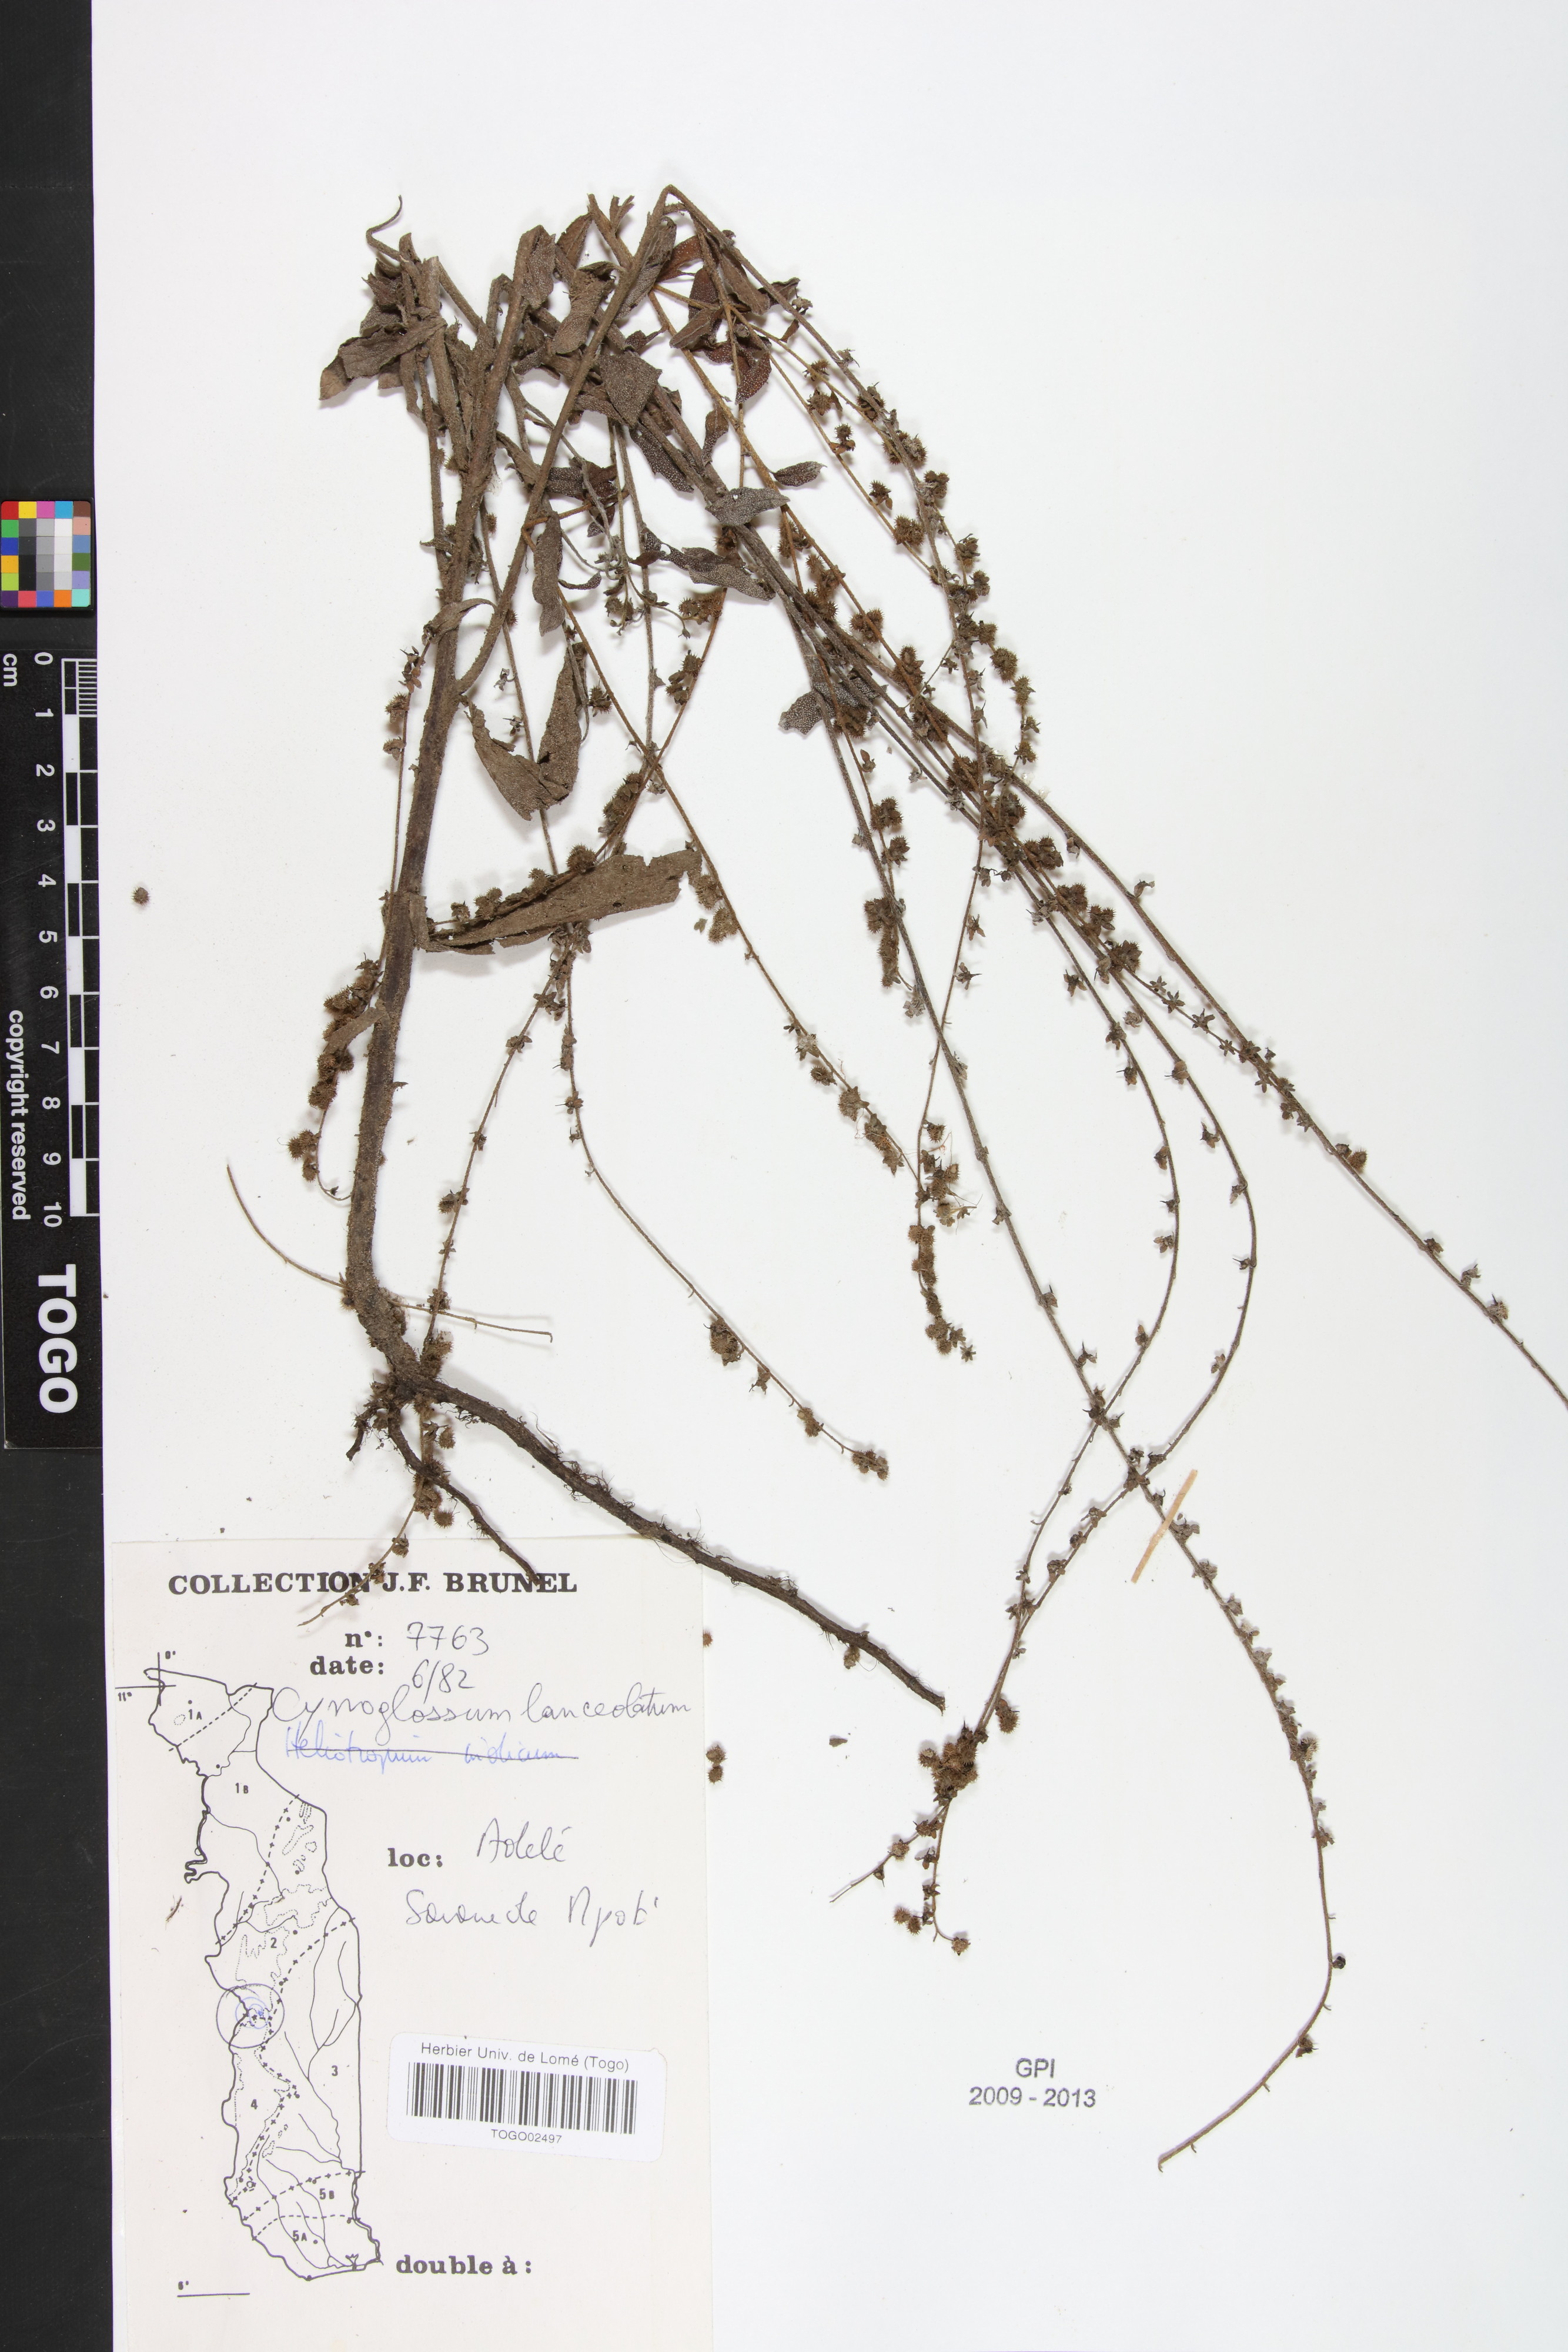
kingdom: Plantae
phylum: Tracheophyta
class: Magnoliopsida
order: Boraginales
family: Boraginaceae
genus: Paracynoglossum
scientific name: Paracynoglossum lanceolatum
